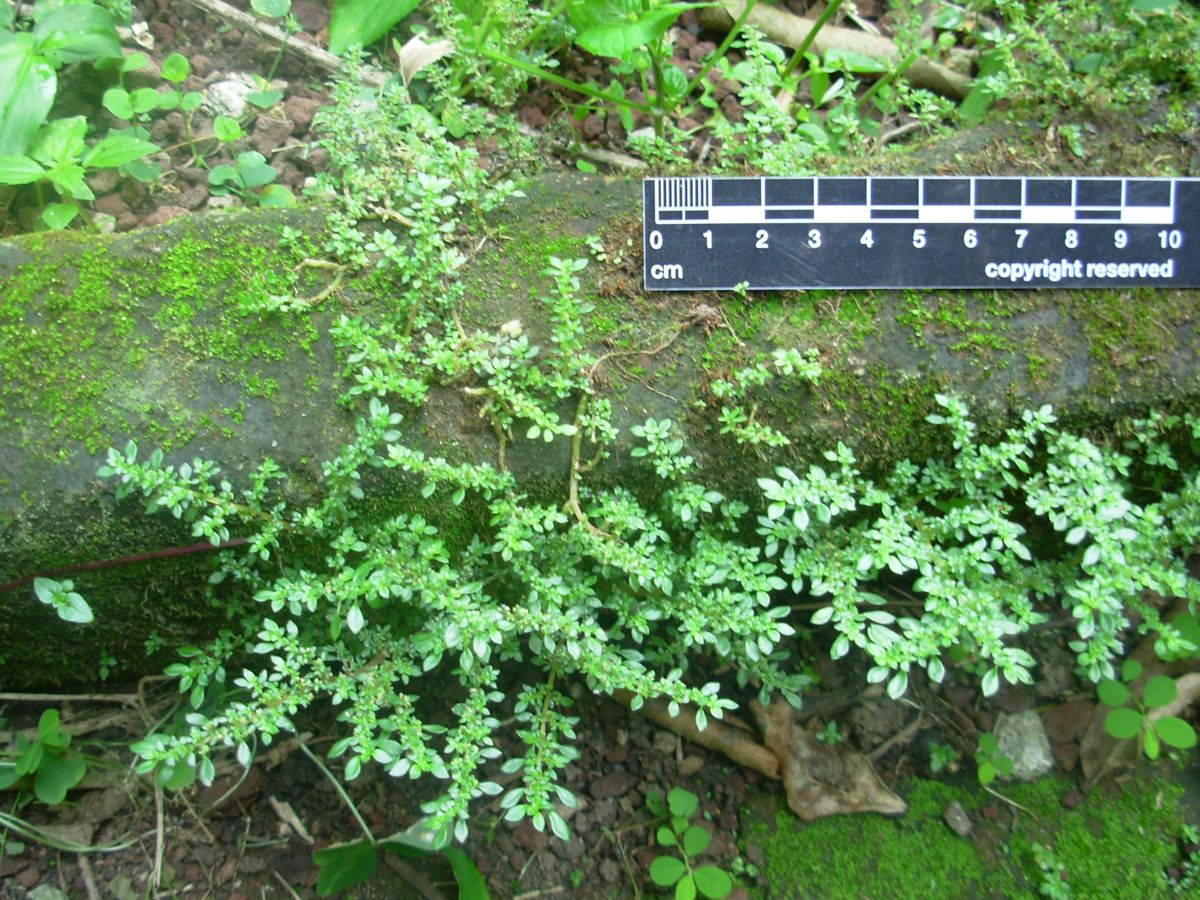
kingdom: Plantae
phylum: Tracheophyta
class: Magnoliopsida
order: Rosales
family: Urticaceae
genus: Pilea
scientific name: Pilea microphylla
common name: Artillery-plant
